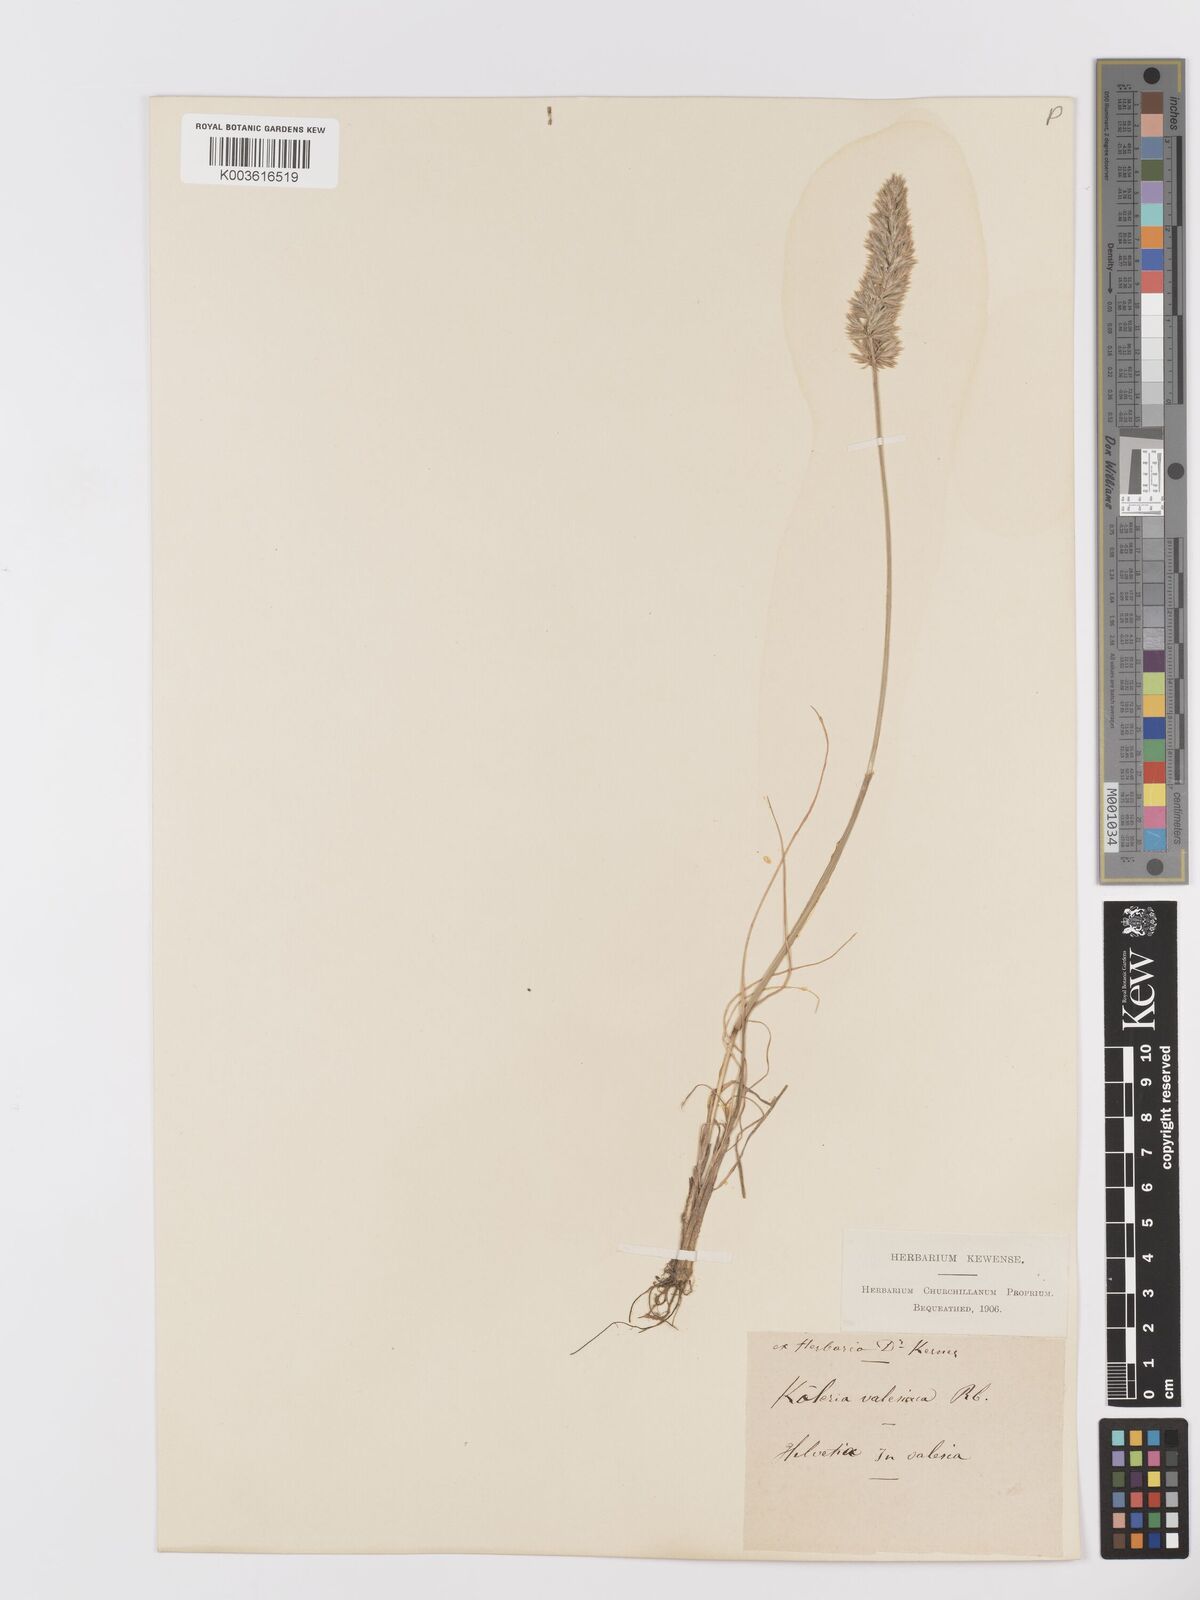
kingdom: Plantae
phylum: Tracheophyta
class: Liliopsida
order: Poales
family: Poaceae
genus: Koeleria
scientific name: Koeleria vallesiana
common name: Somerset hair-grass
